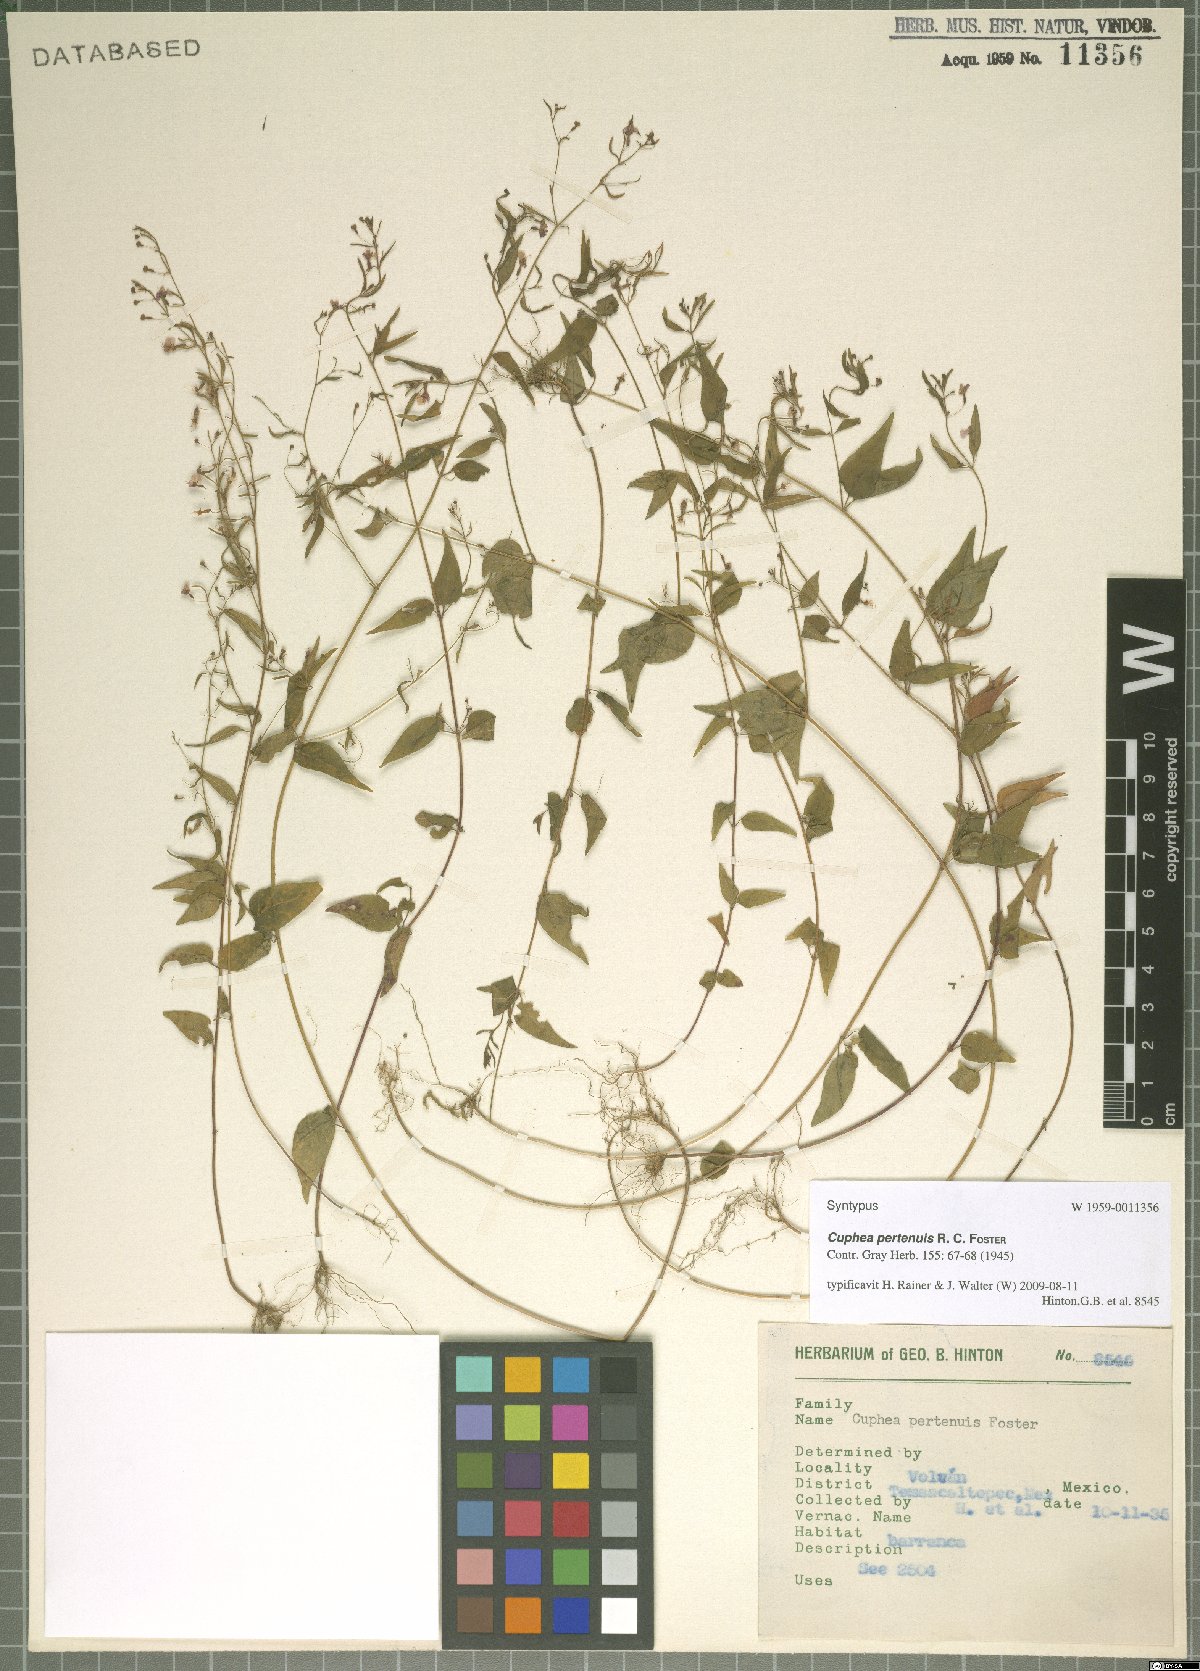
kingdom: Plantae
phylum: Tracheophyta
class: Magnoliopsida
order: Myrtales
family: Lythraceae
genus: Cuphea
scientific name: Cuphea pertenuis
